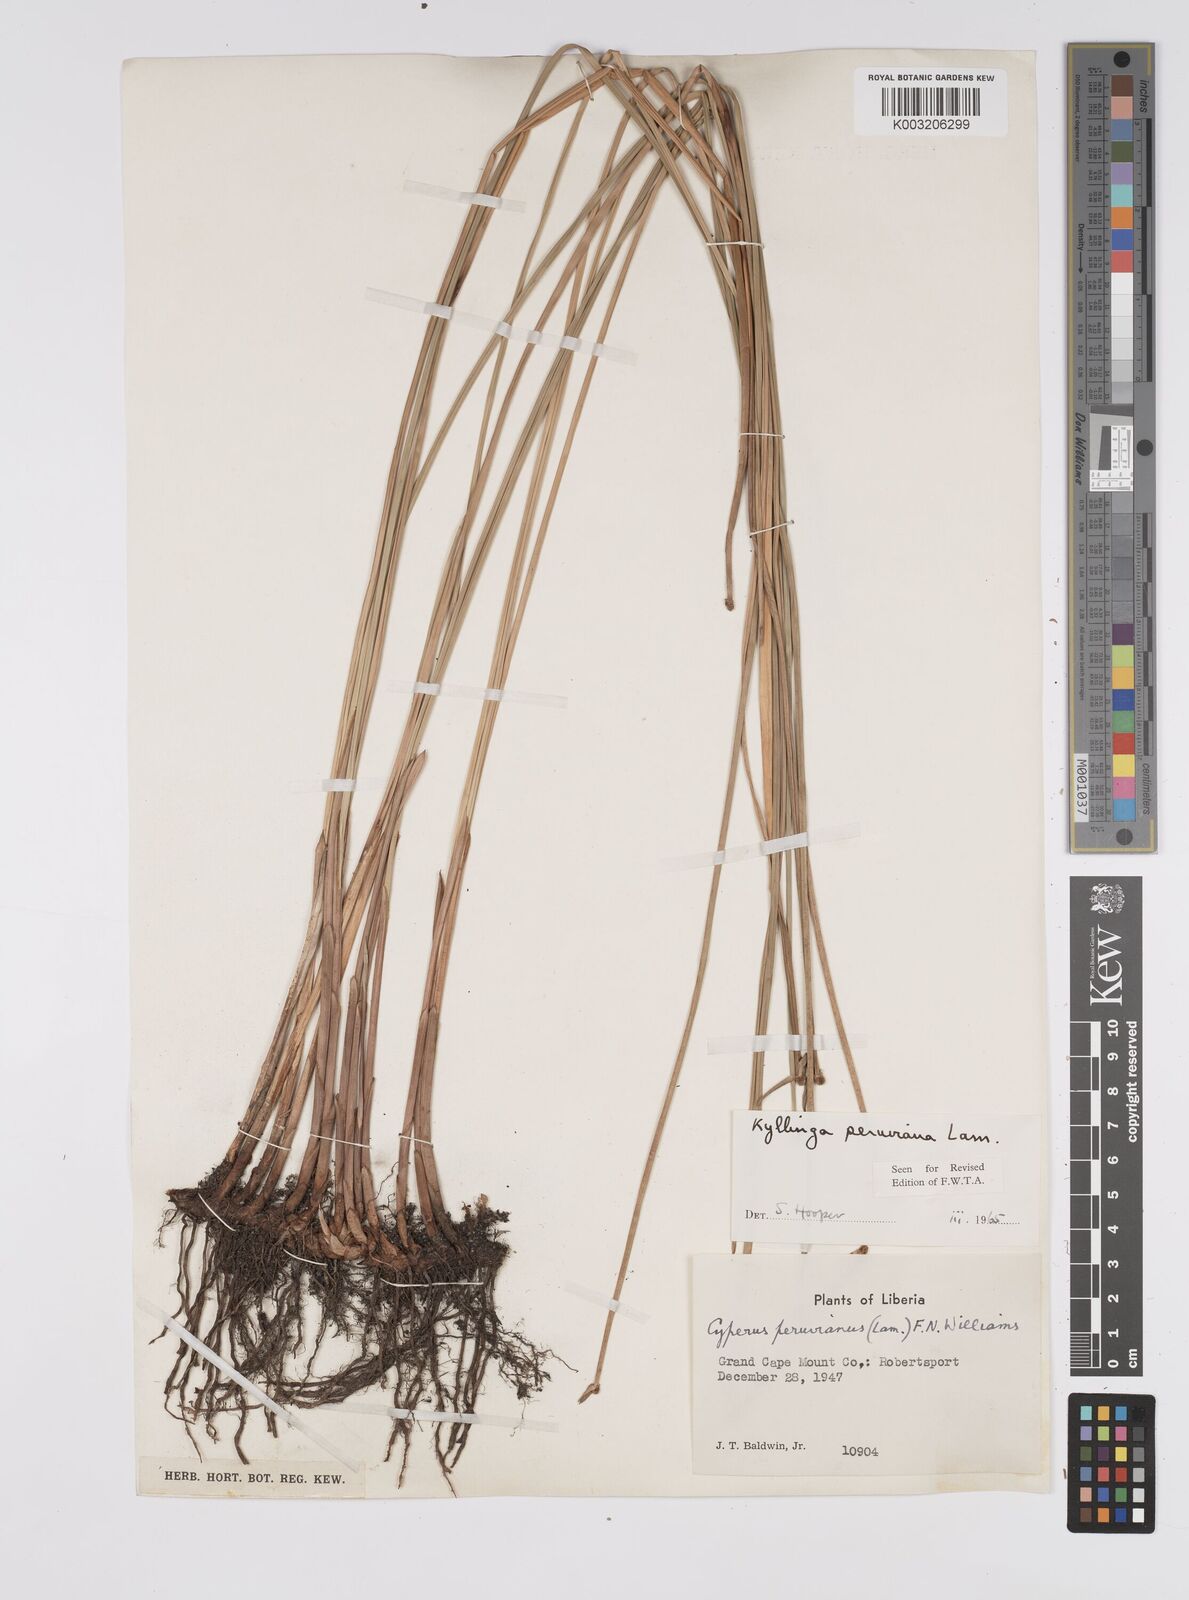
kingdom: Plantae
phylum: Tracheophyta
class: Liliopsida
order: Poales
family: Cyperaceae
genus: Cyperus
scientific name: Cyperus obtusatus
